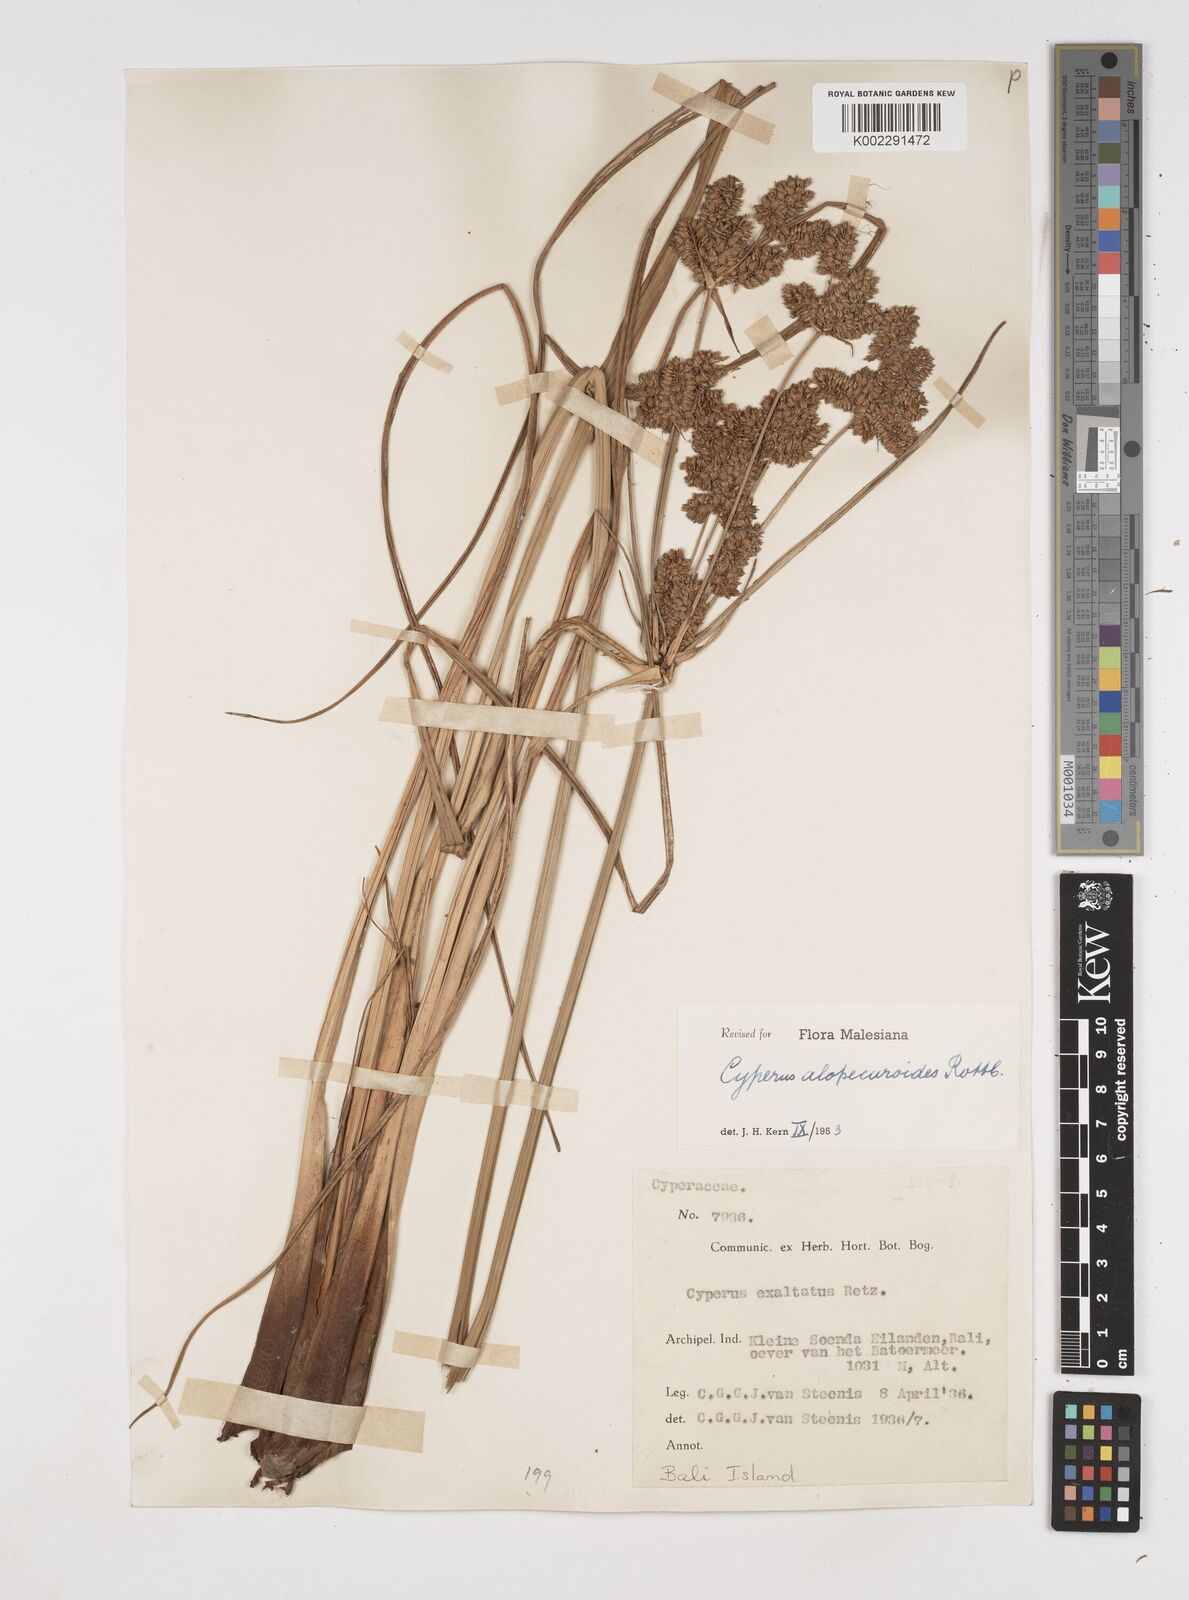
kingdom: Plantae
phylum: Tracheophyta
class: Liliopsida
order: Poales
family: Cyperaceae
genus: Cyperus
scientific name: Cyperus alopecuroides
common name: Foxtail flatsedge
